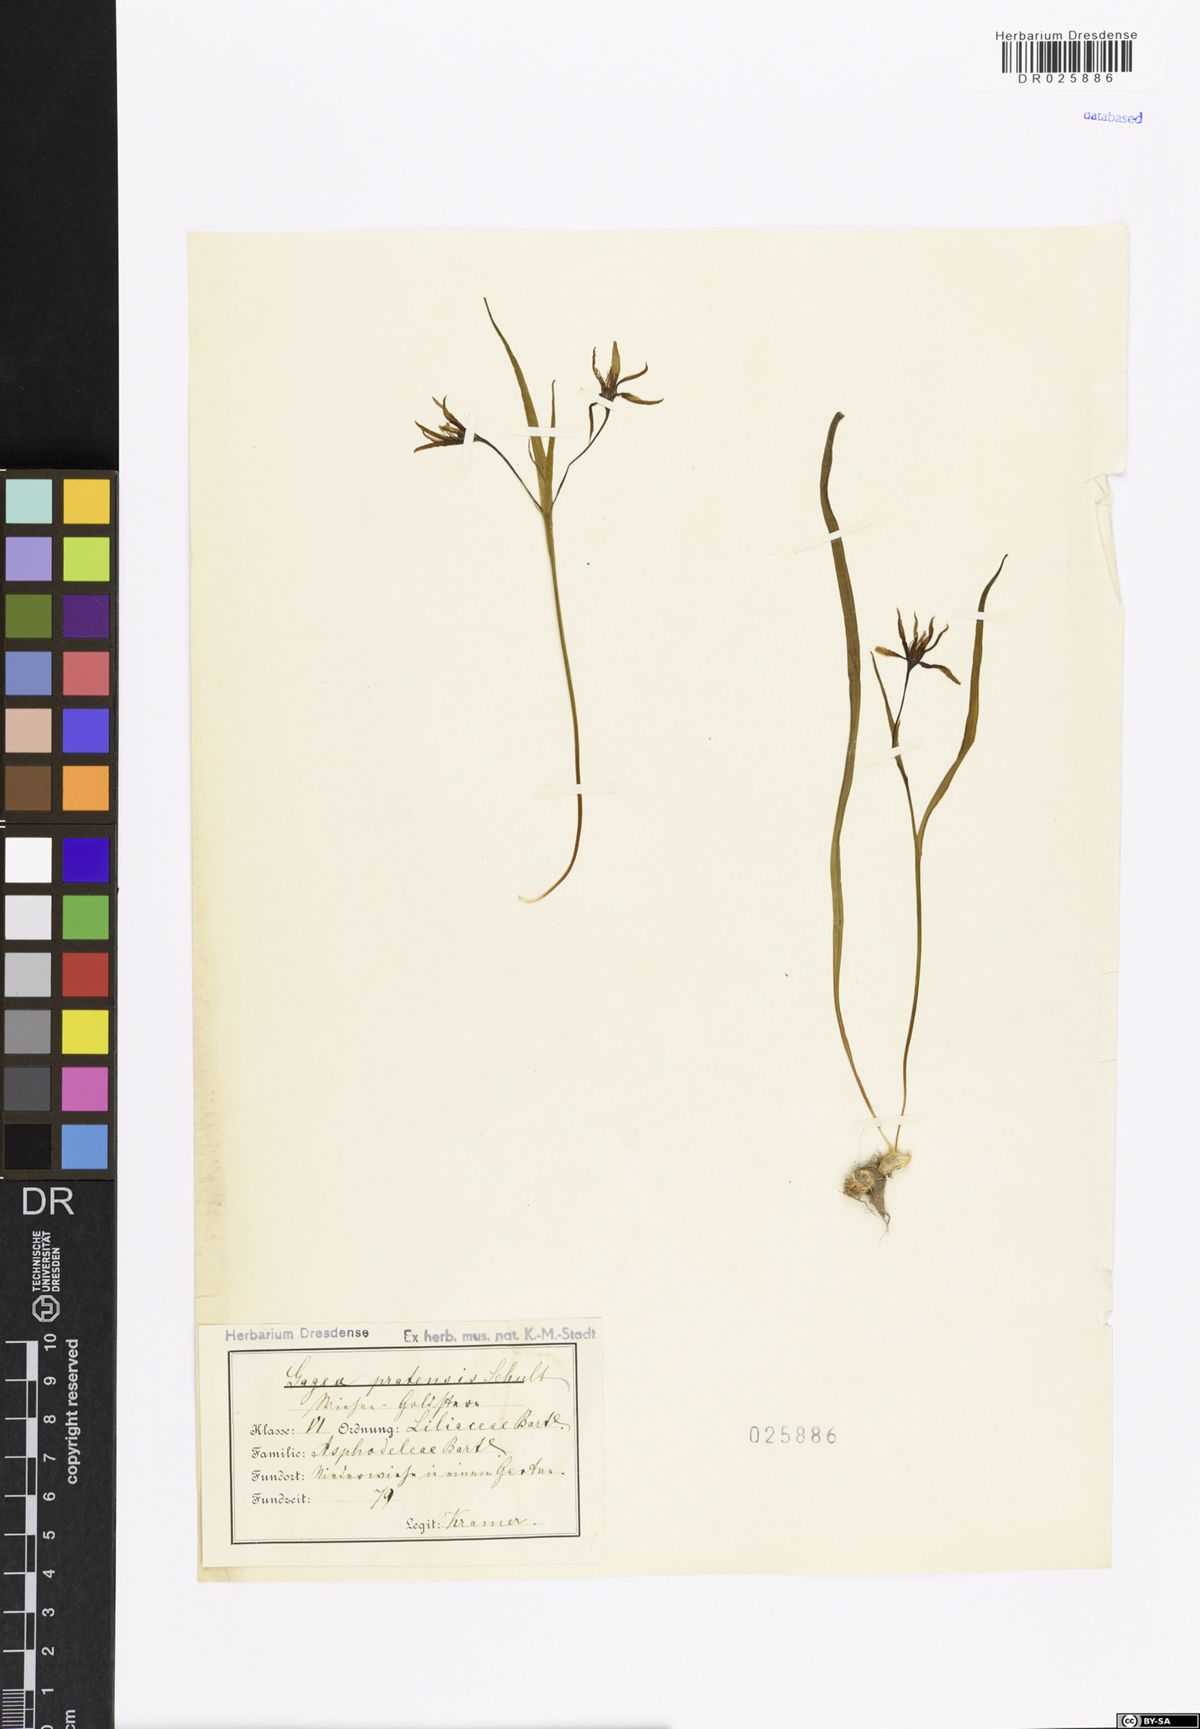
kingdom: Plantae
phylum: Tracheophyta
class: Liliopsida
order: Liliales
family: Liliaceae
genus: Gagea
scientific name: Gagea pratensis
